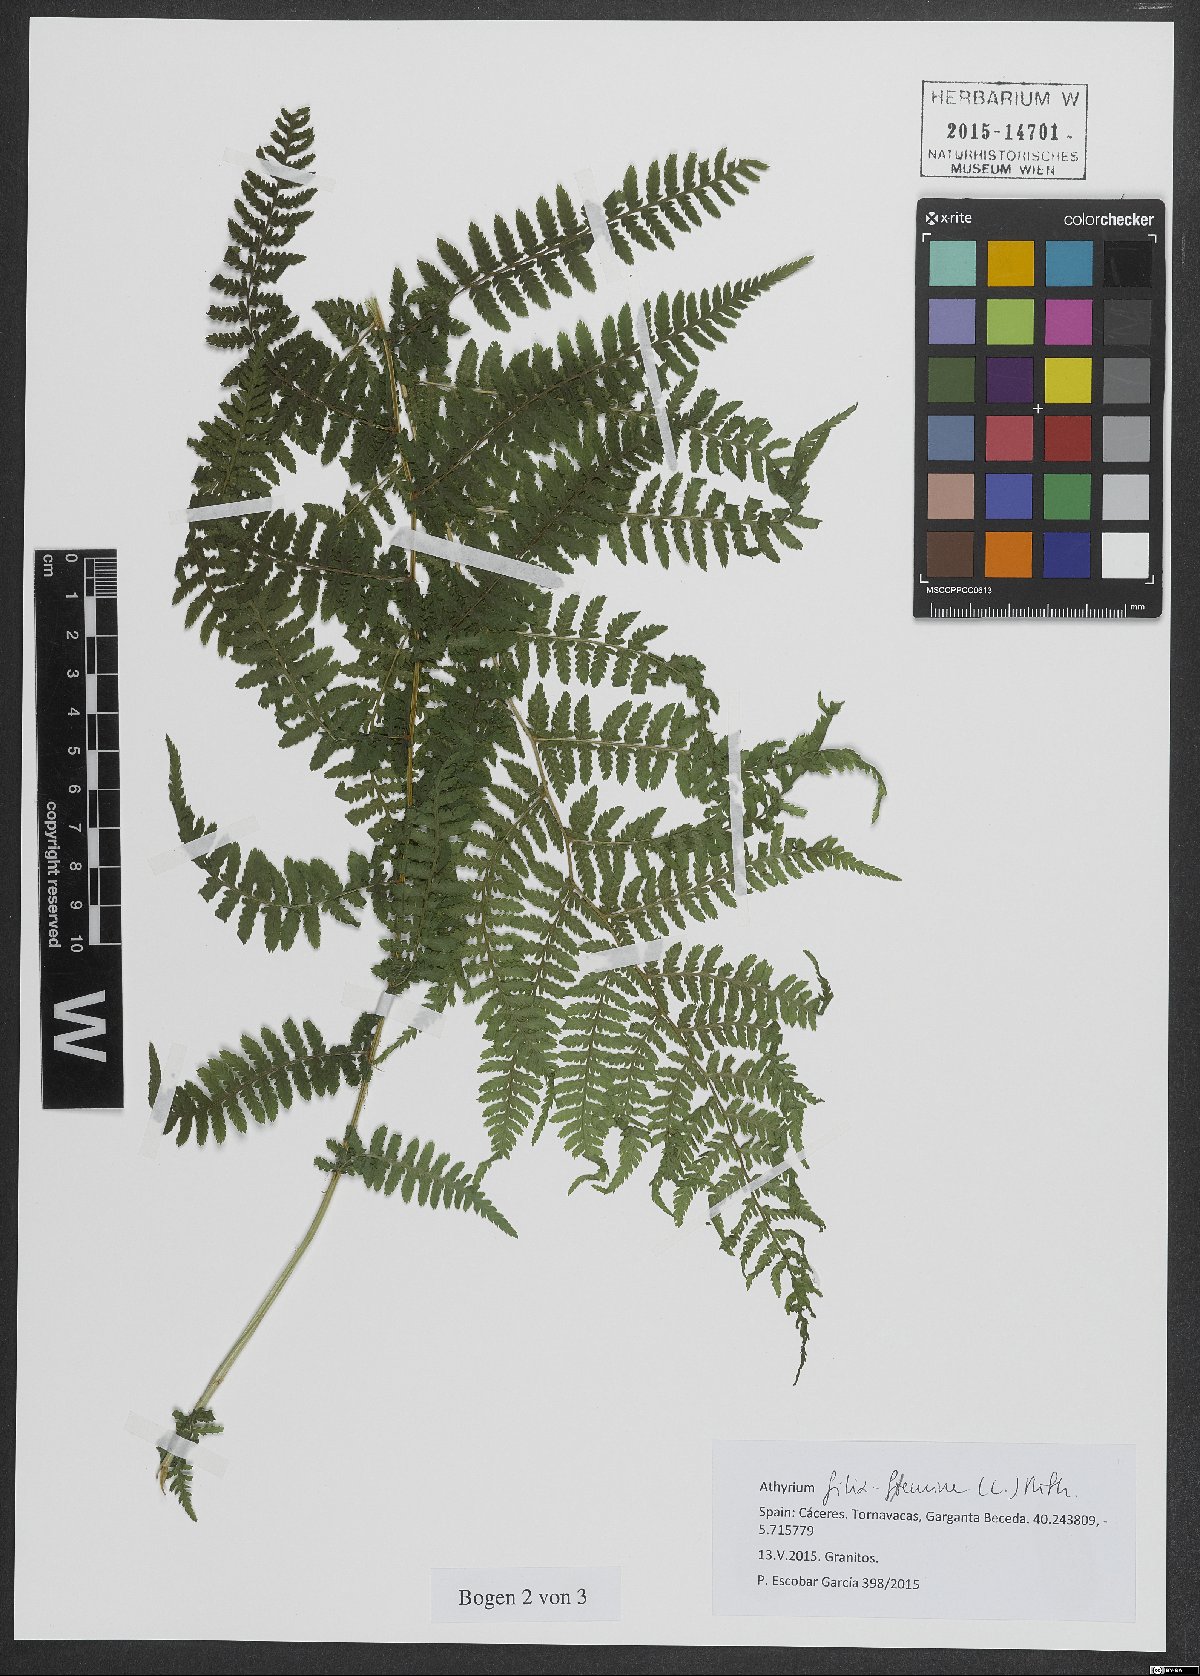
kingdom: Plantae
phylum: Tracheophyta
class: Polypodiopsida
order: Polypodiales
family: Athyriaceae
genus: Athyrium
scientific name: Athyrium filix-femina
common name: Lady fern
